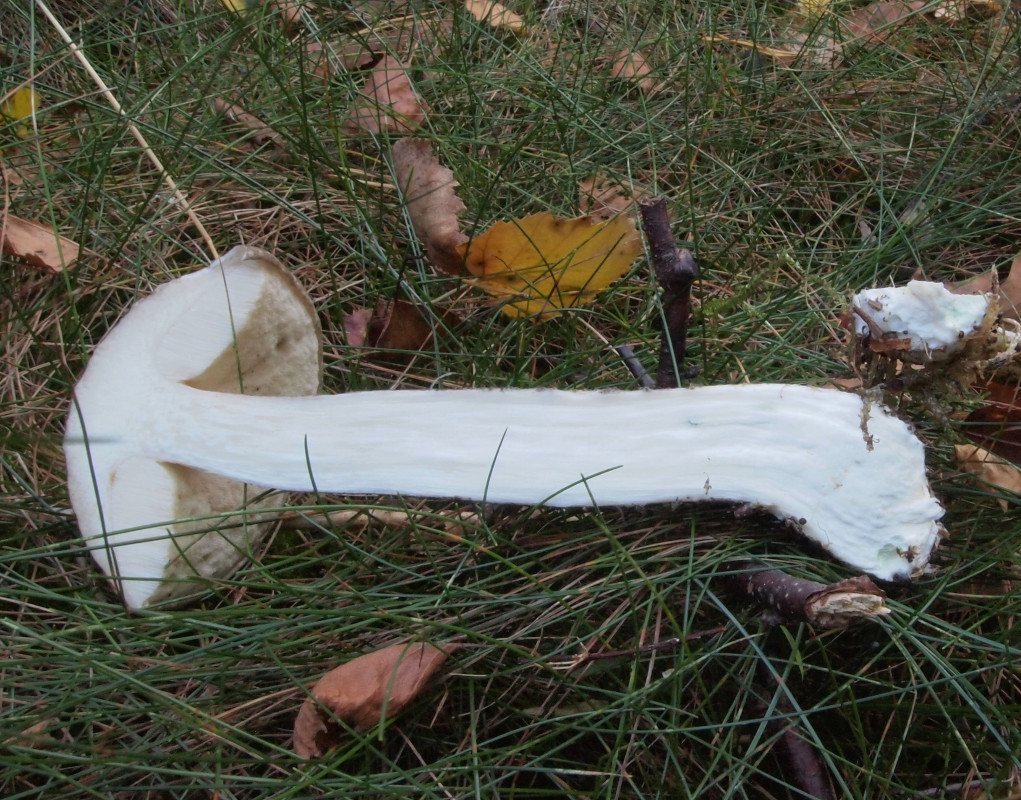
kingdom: Fungi
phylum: Basidiomycota
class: Agaricomycetes
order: Boletales
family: Boletaceae
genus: Leccinum
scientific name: Leccinum variicolor
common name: flammet skælrørhat
